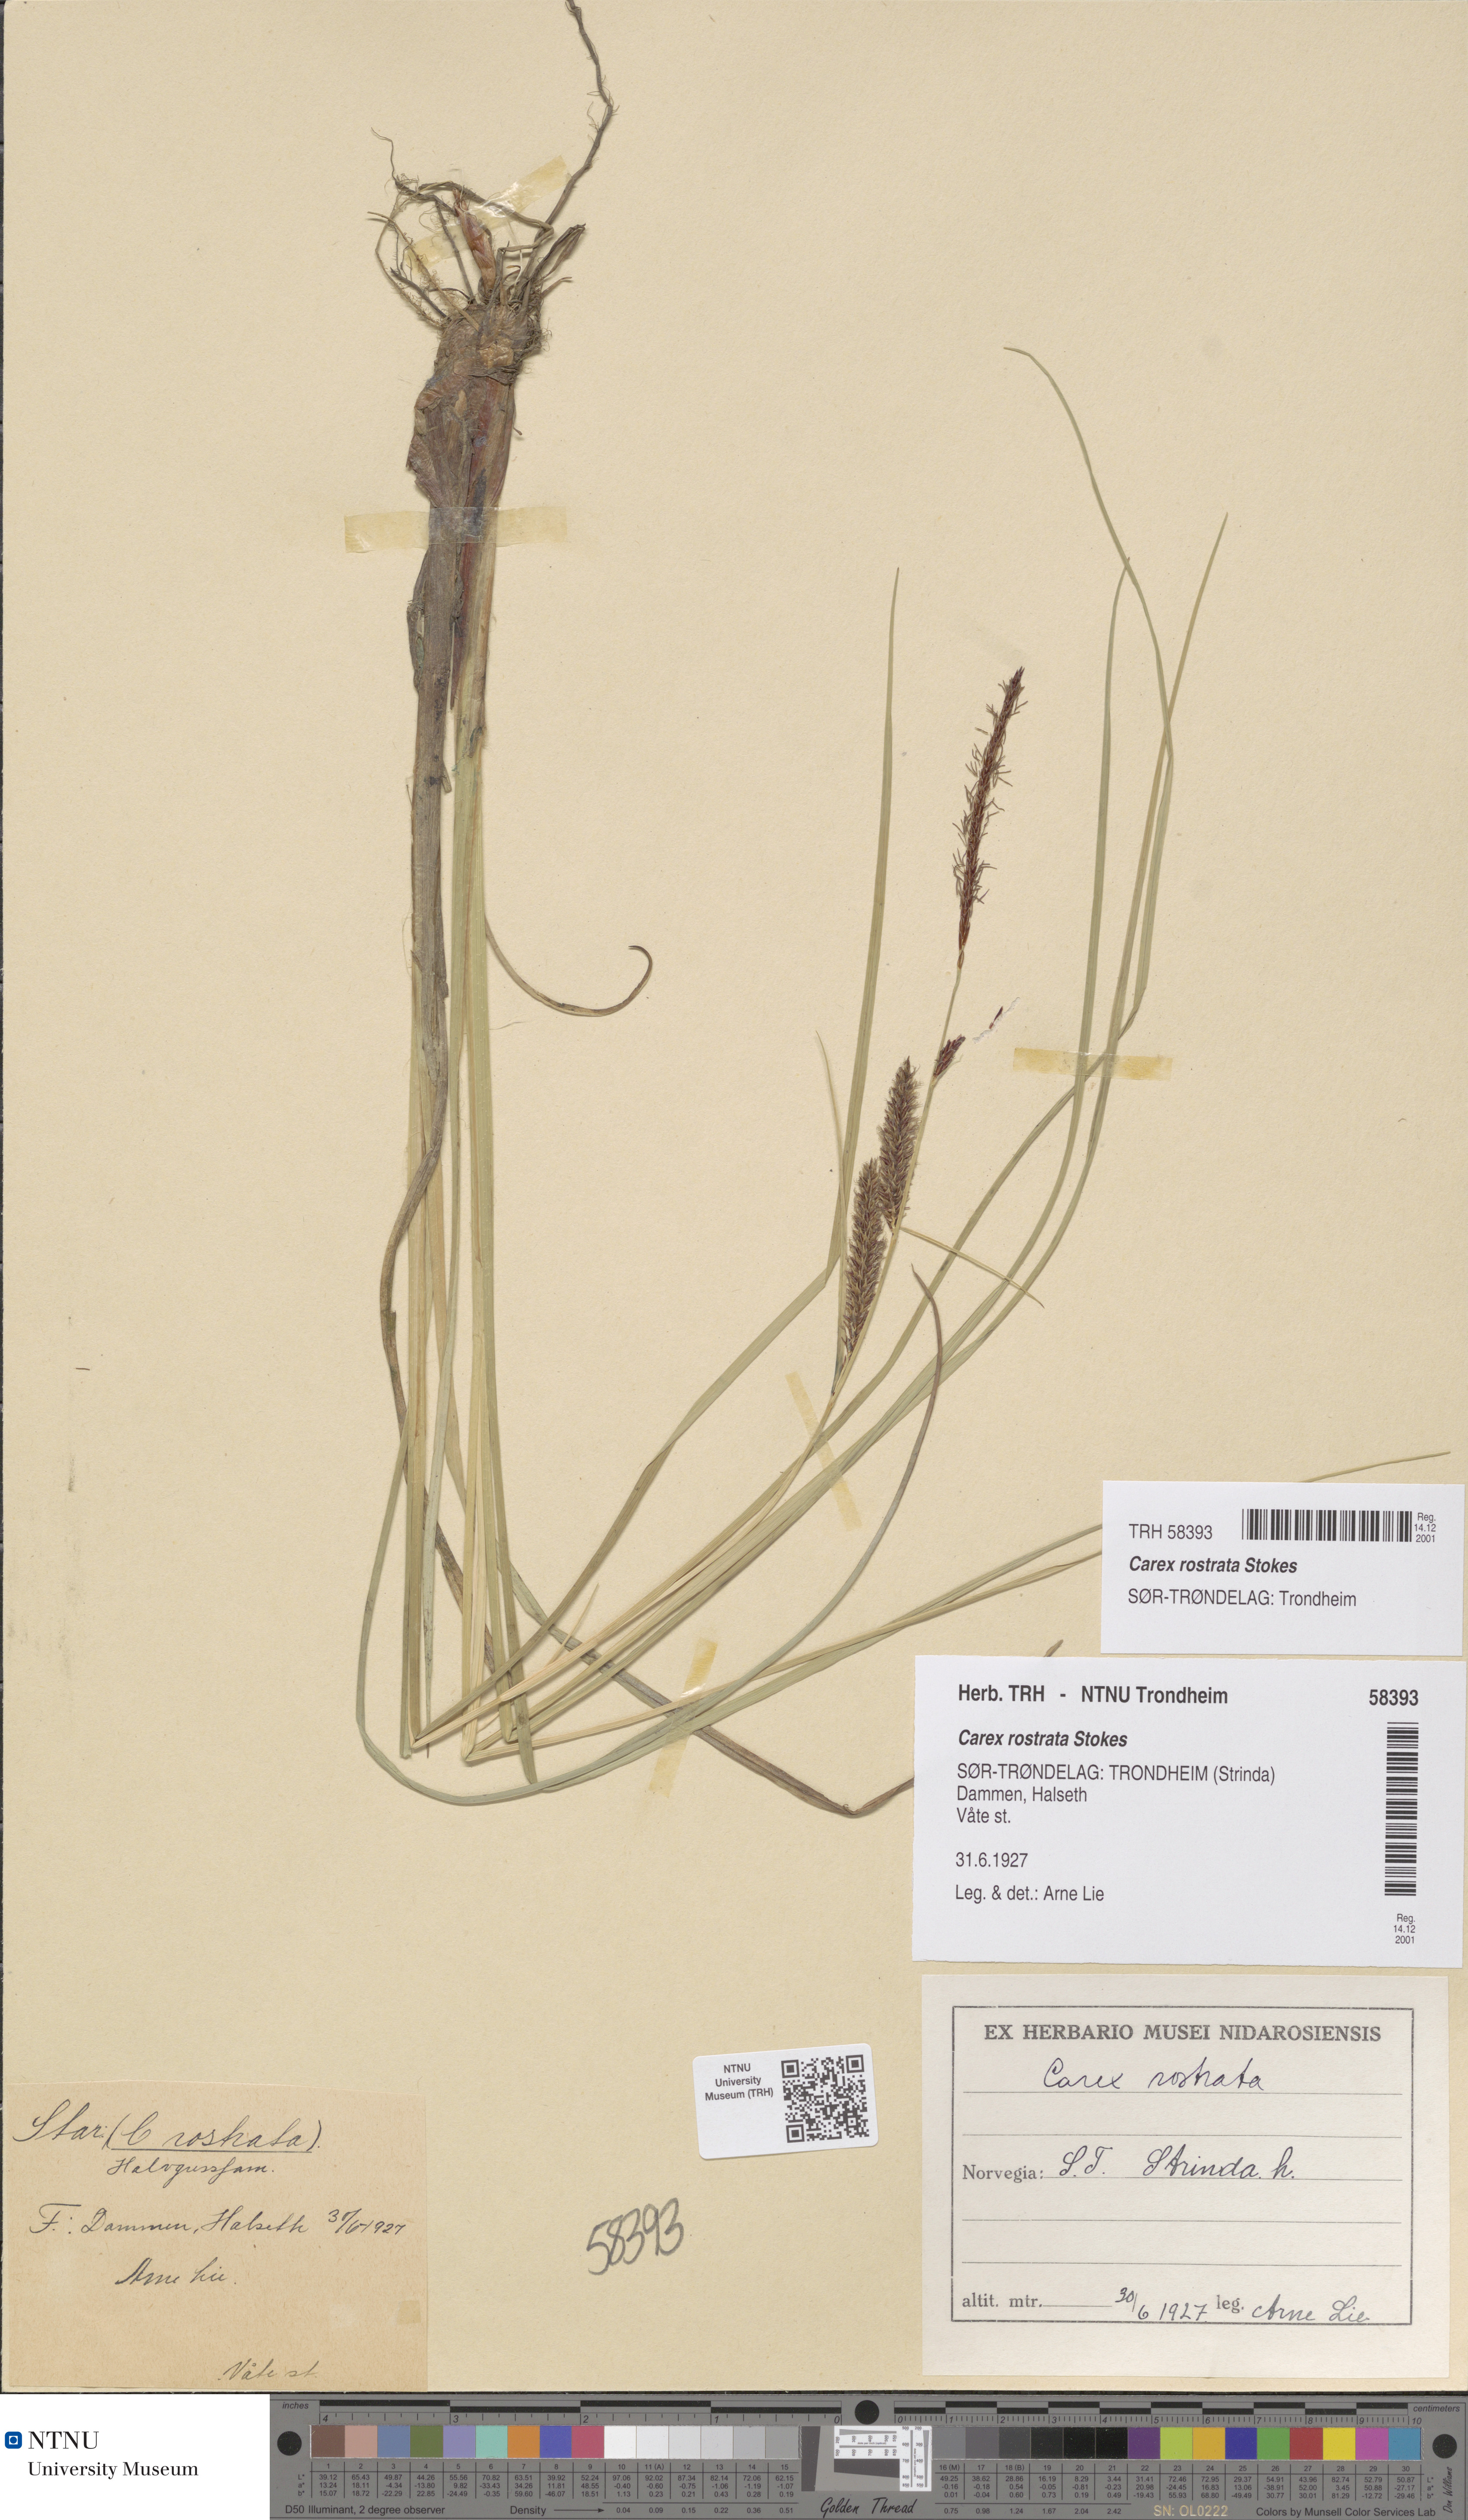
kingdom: Plantae
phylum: Tracheophyta
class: Liliopsida
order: Poales
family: Cyperaceae
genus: Carex
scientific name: Carex rostrata
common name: Bottle sedge
